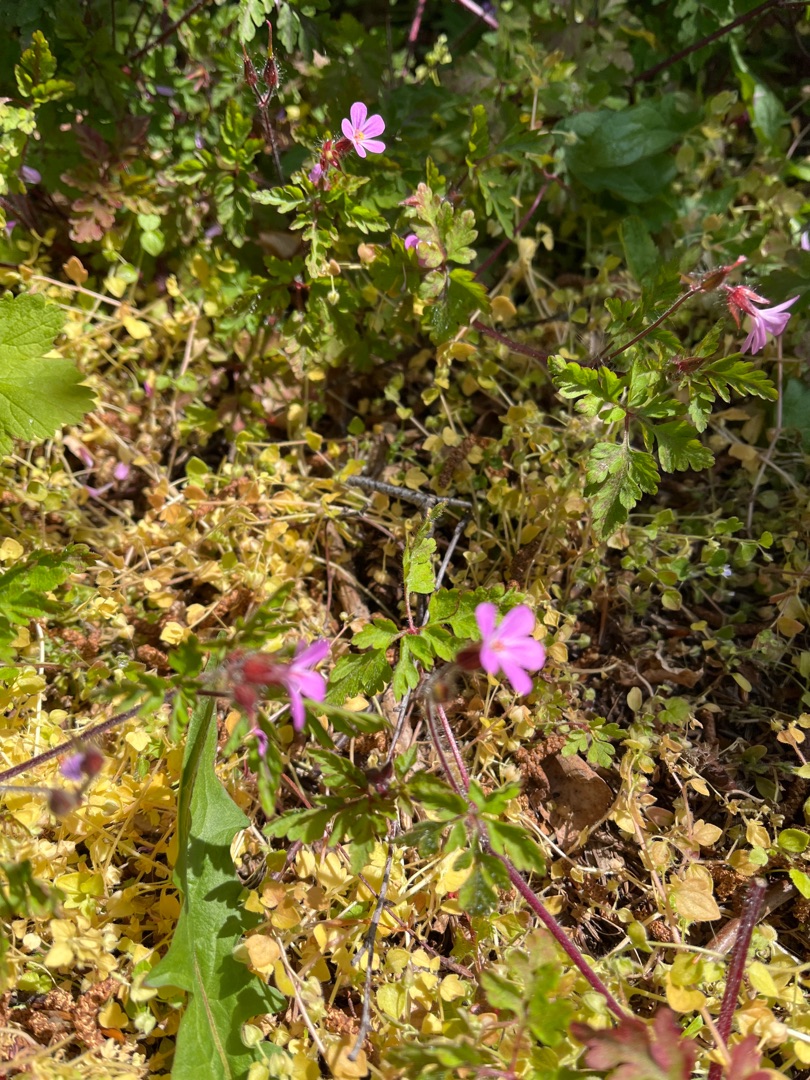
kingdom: Plantae
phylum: Tracheophyta
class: Magnoliopsida
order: Geraniales
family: Geraniaceae
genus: Geranium
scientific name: Geranium robertianum
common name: Stinkende storkenæb
